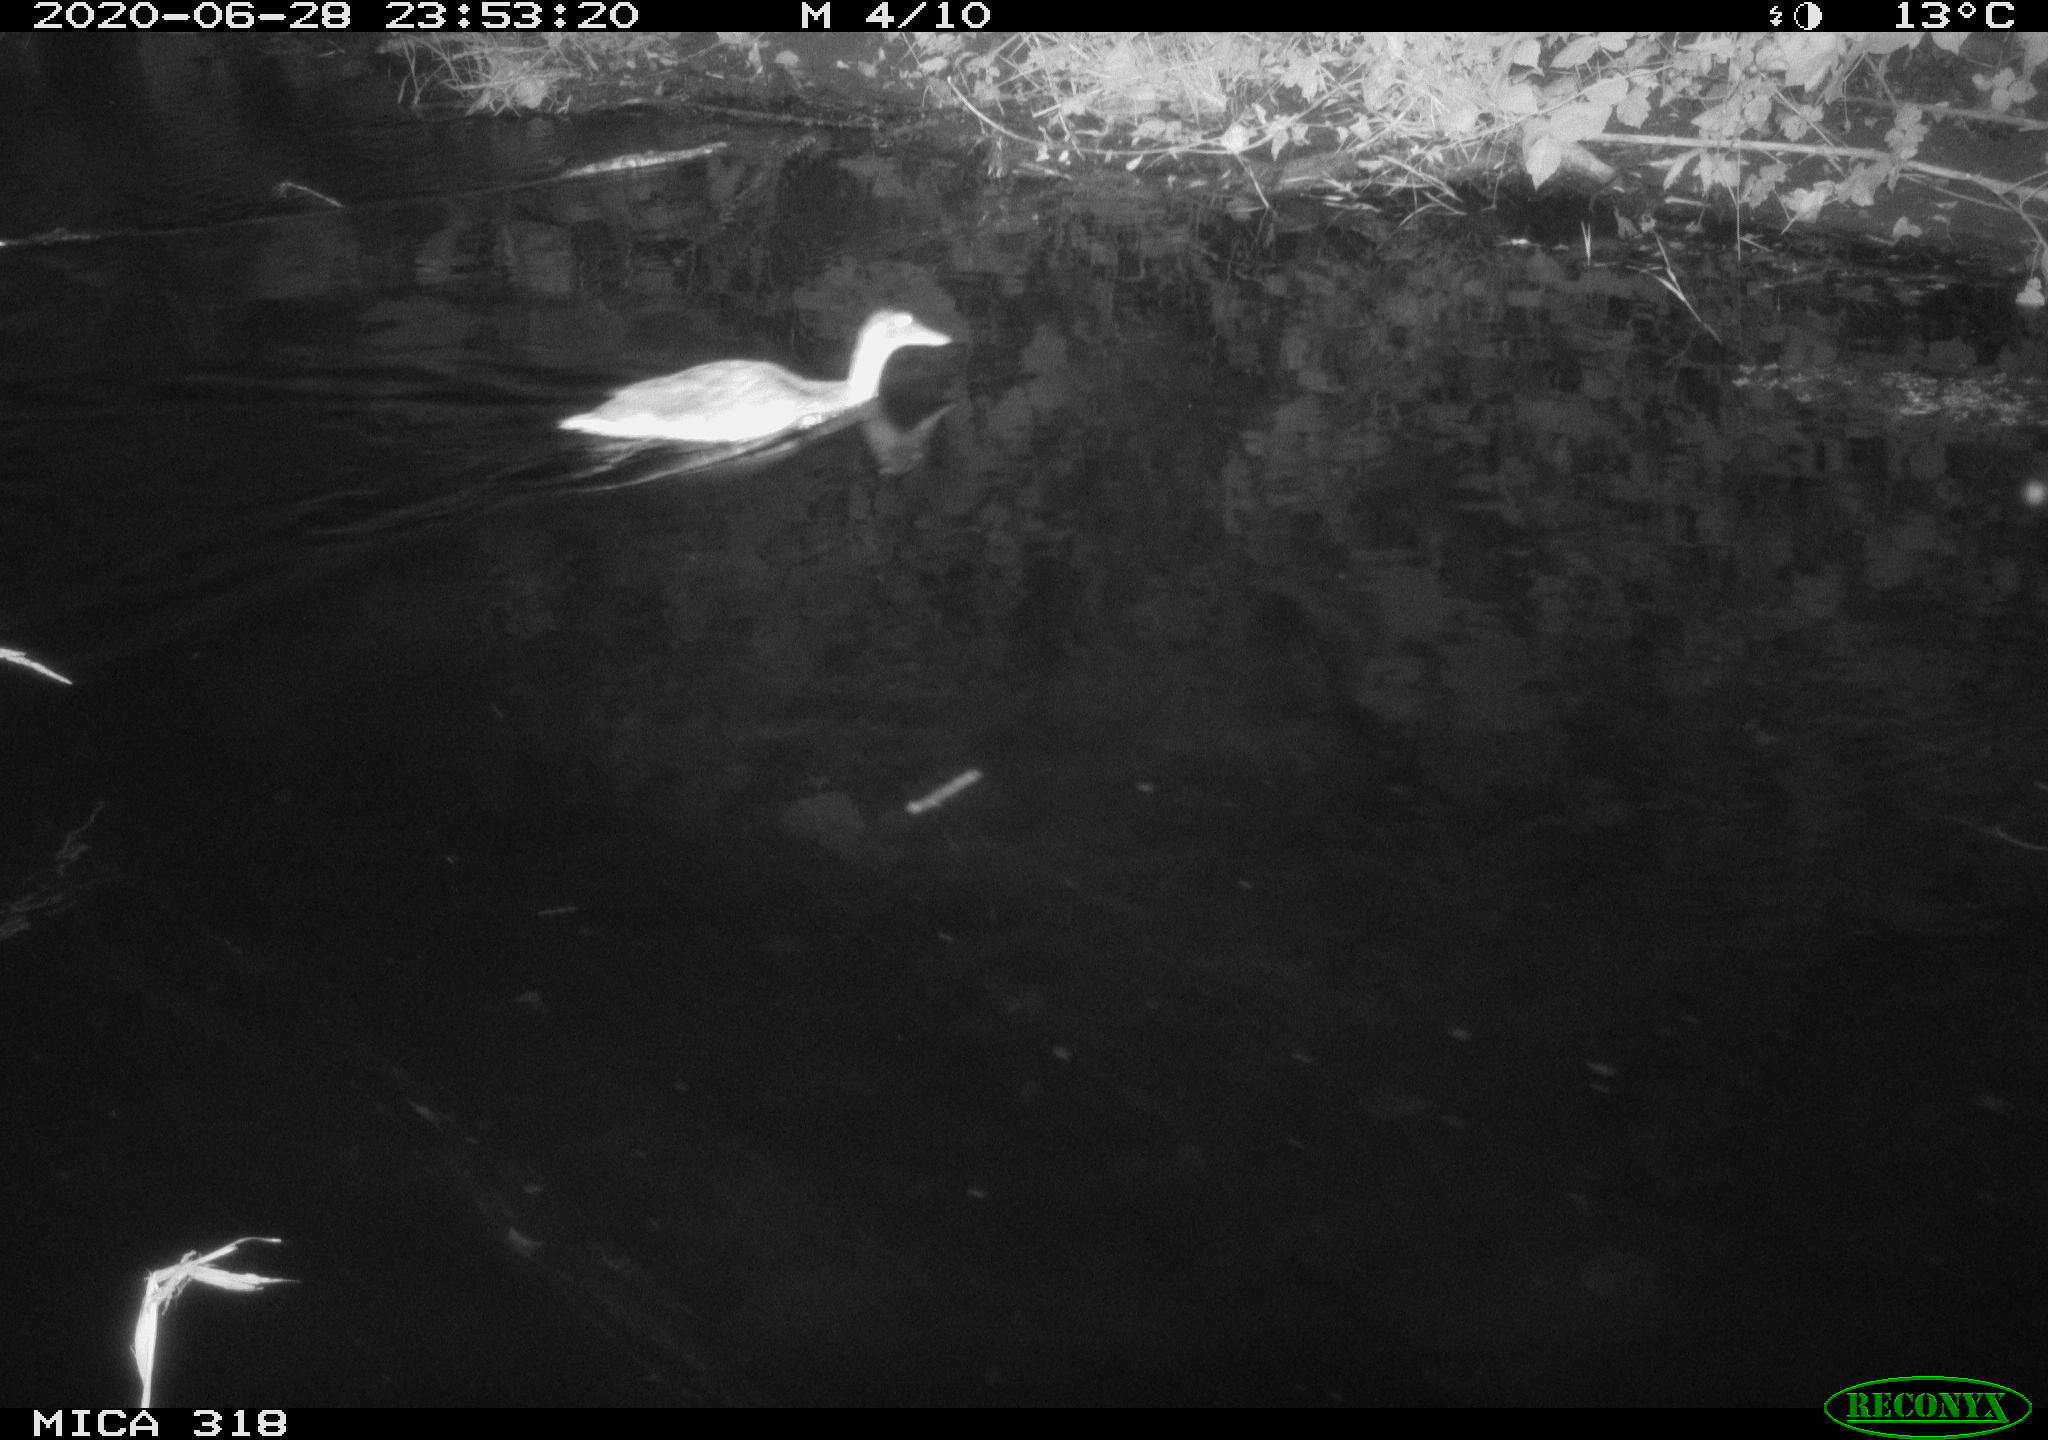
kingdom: Animalia
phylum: Chordata
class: Aves
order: Anseriformes
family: Anatidae
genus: Anas
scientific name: Anas platyrhynchos
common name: Mallard
